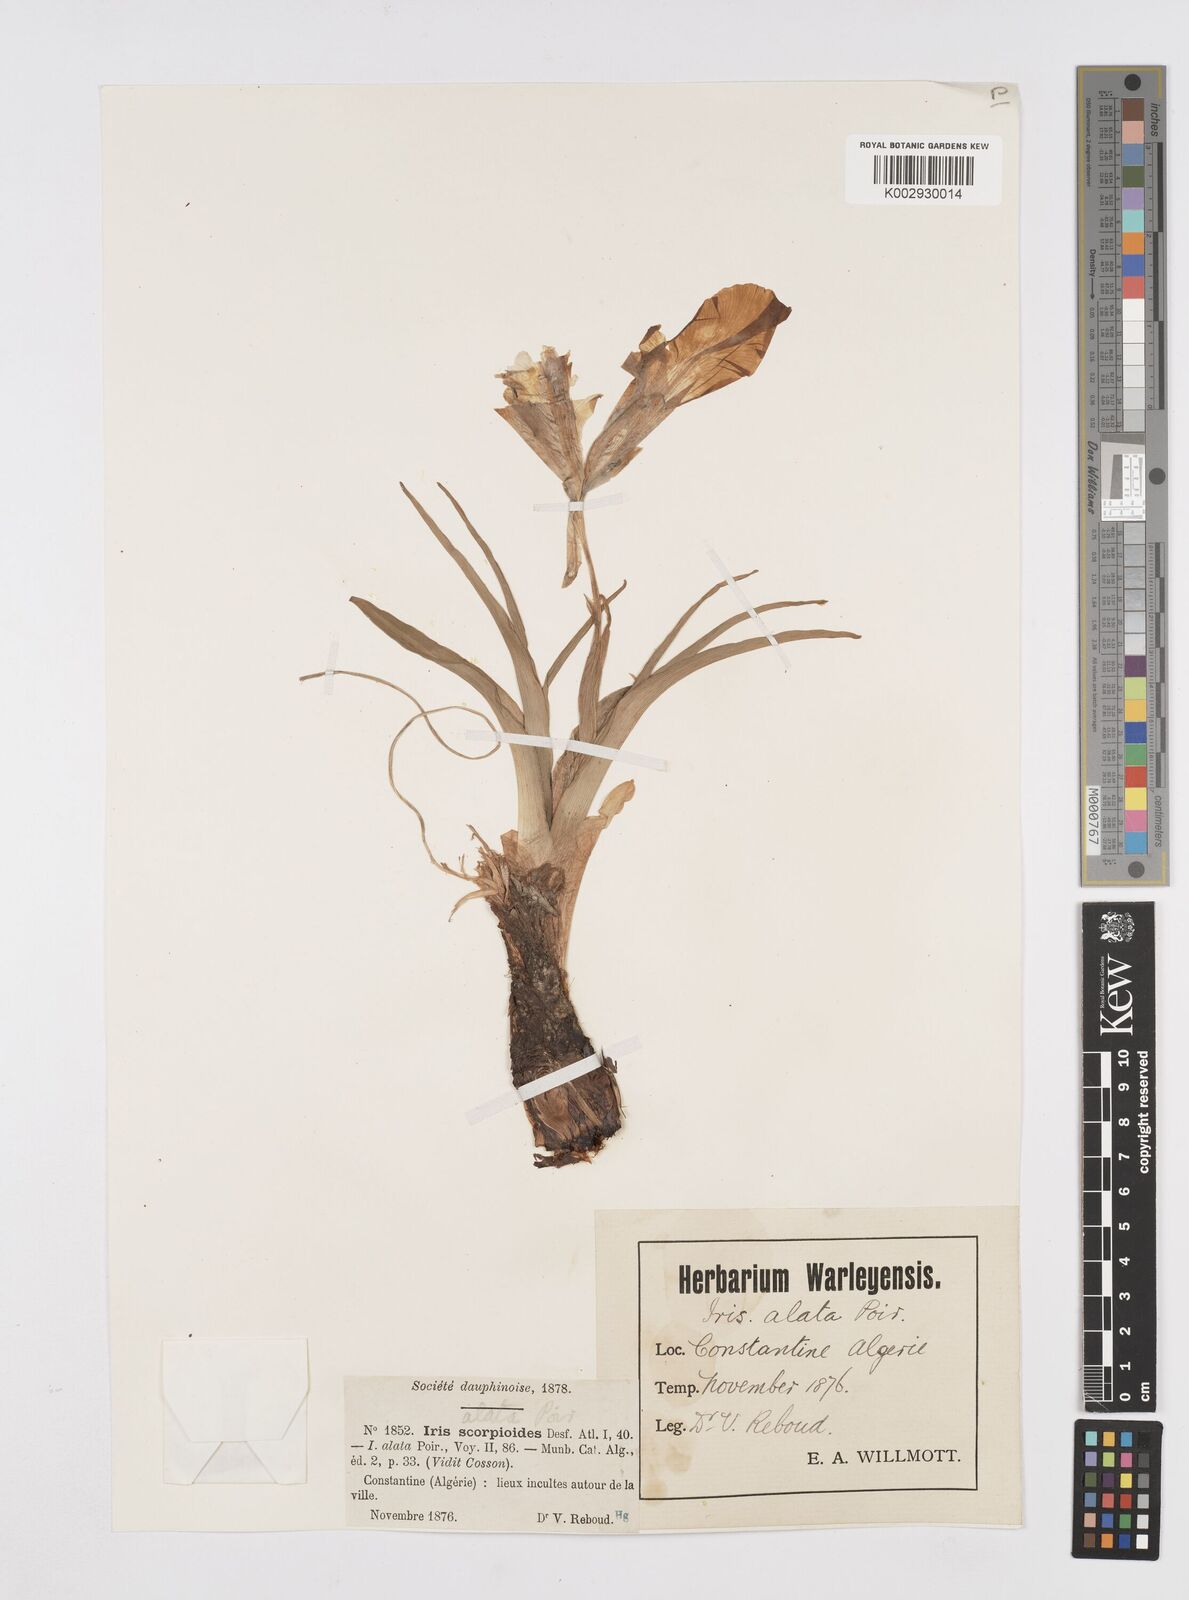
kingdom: Plantae
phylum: Tracheophyta
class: Liliopsida
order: Asparagales
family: Iridaceae
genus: Iris
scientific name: Iris planifolia
